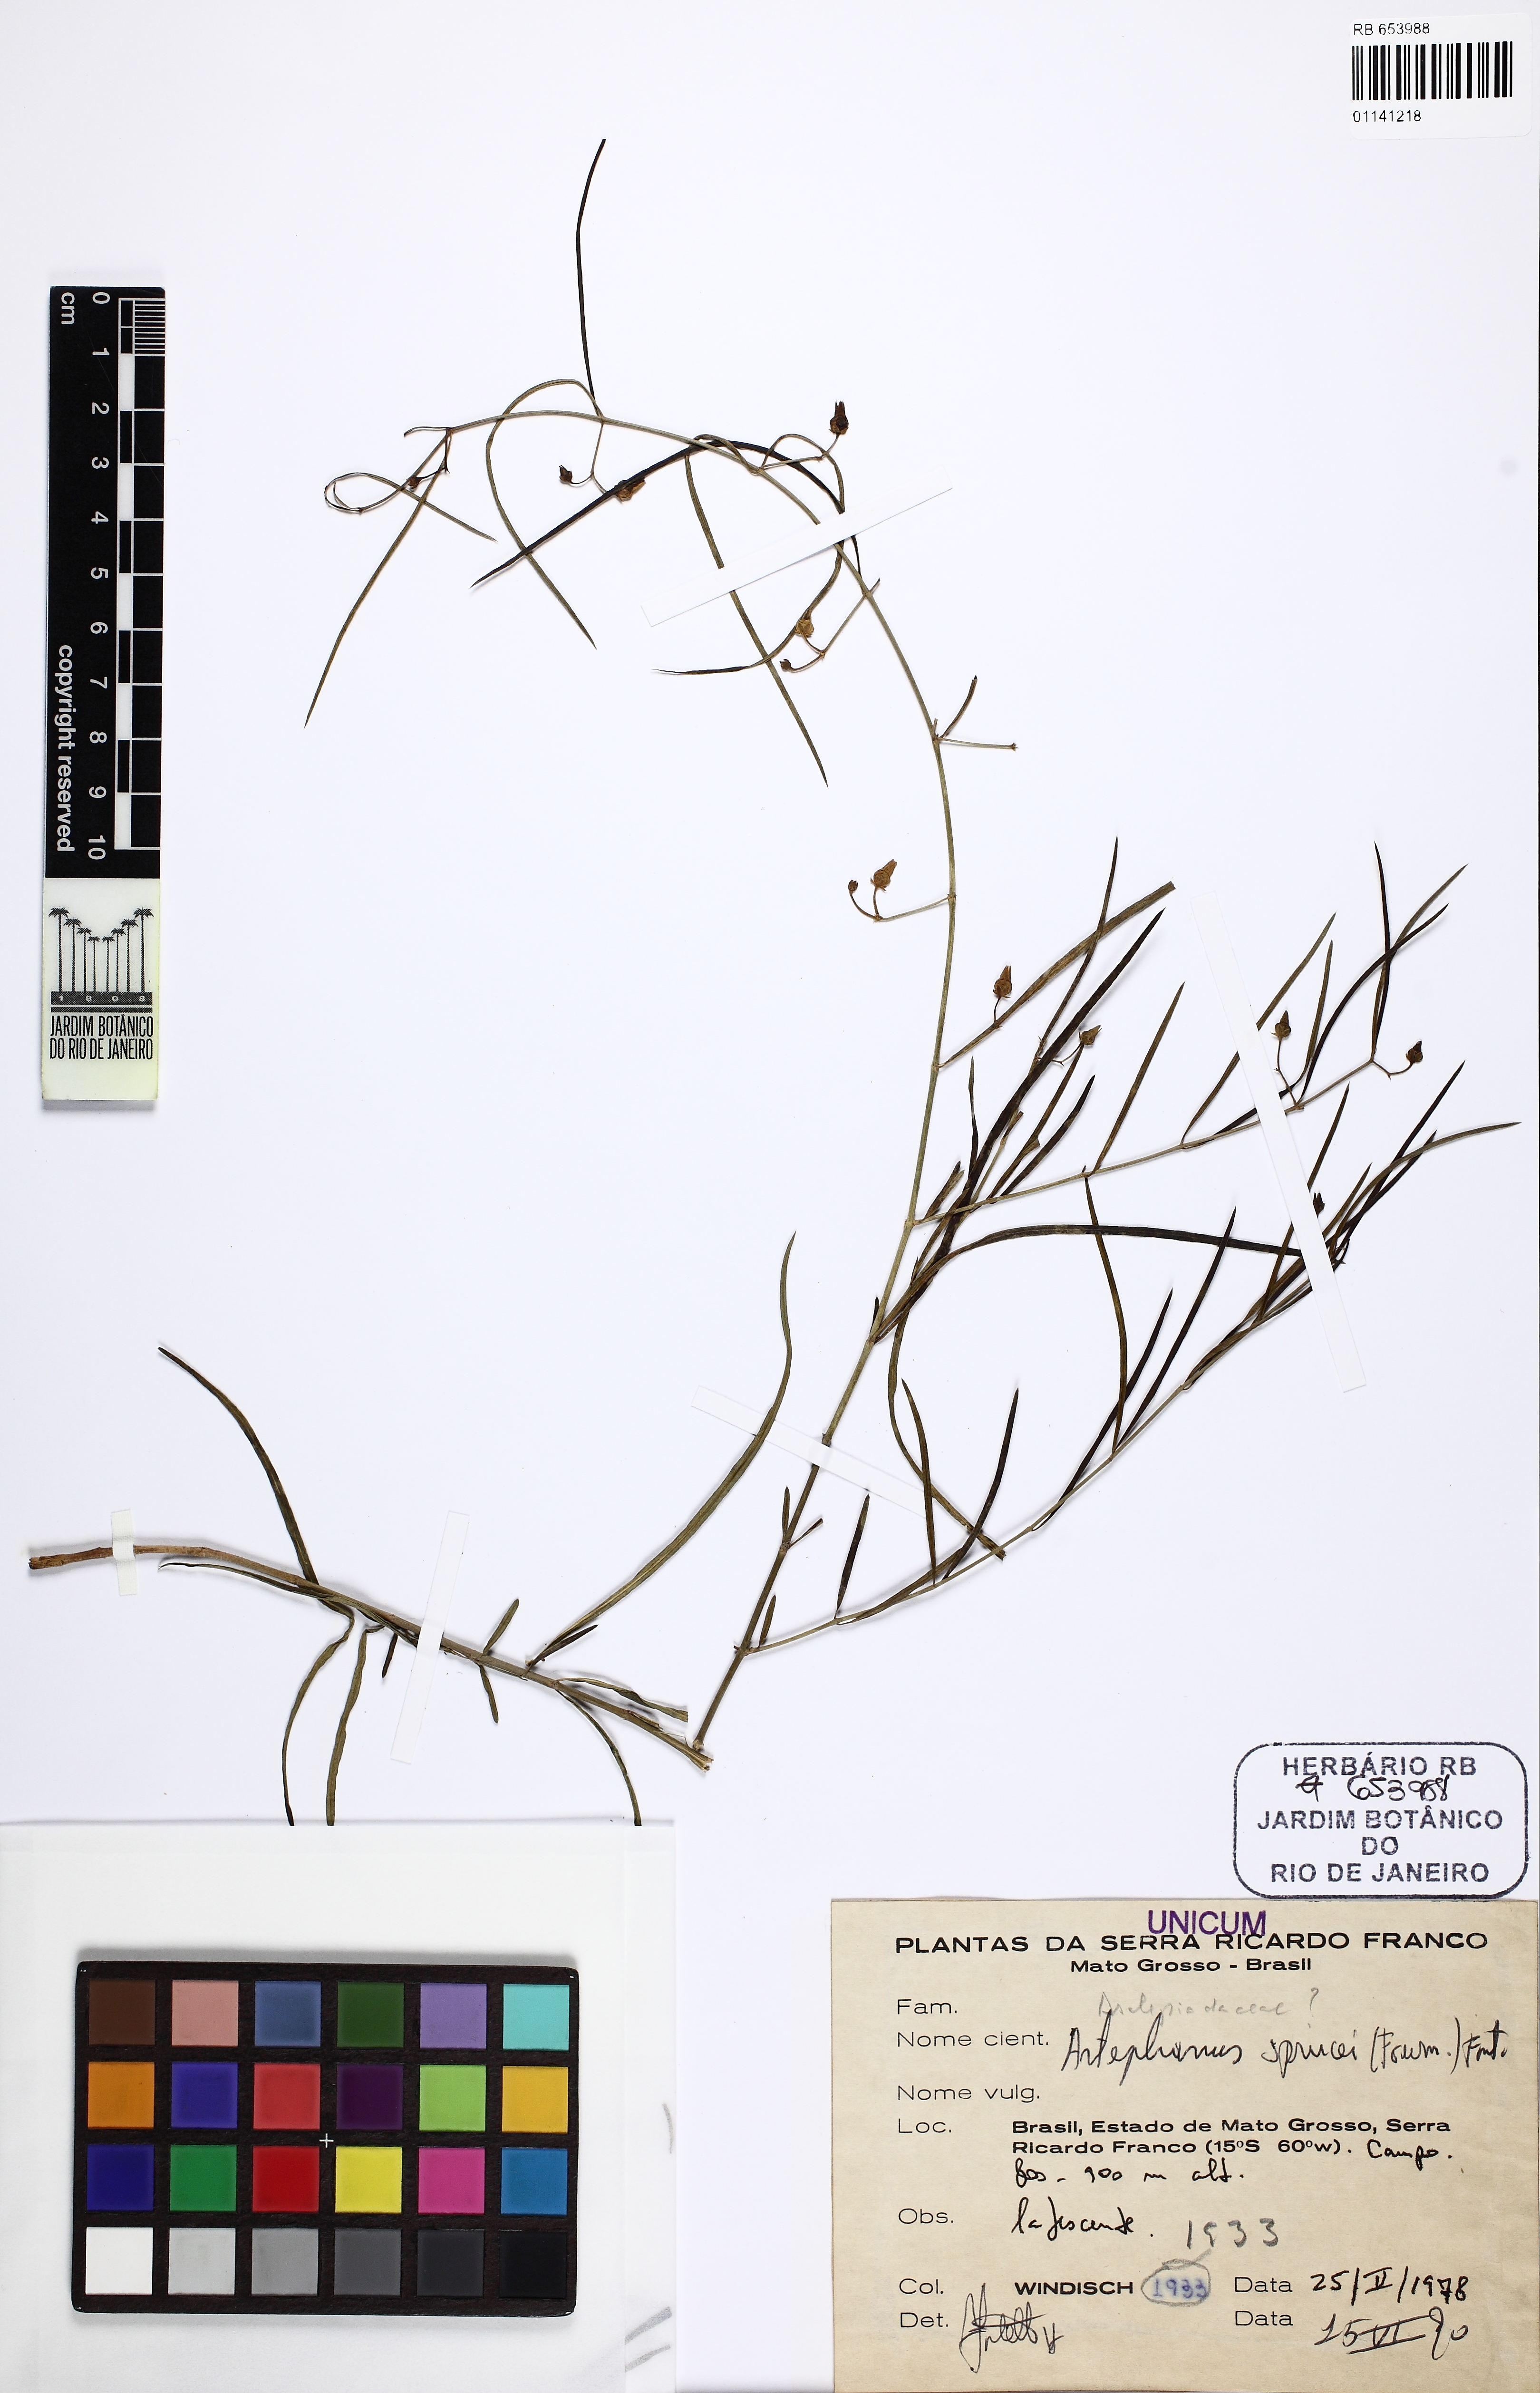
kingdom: Plantae
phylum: Tracheophyta
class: Magnoliopsida
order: Gentianales
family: Apocynaceae
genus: Hemipogon
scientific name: Hemipogon sprucei
